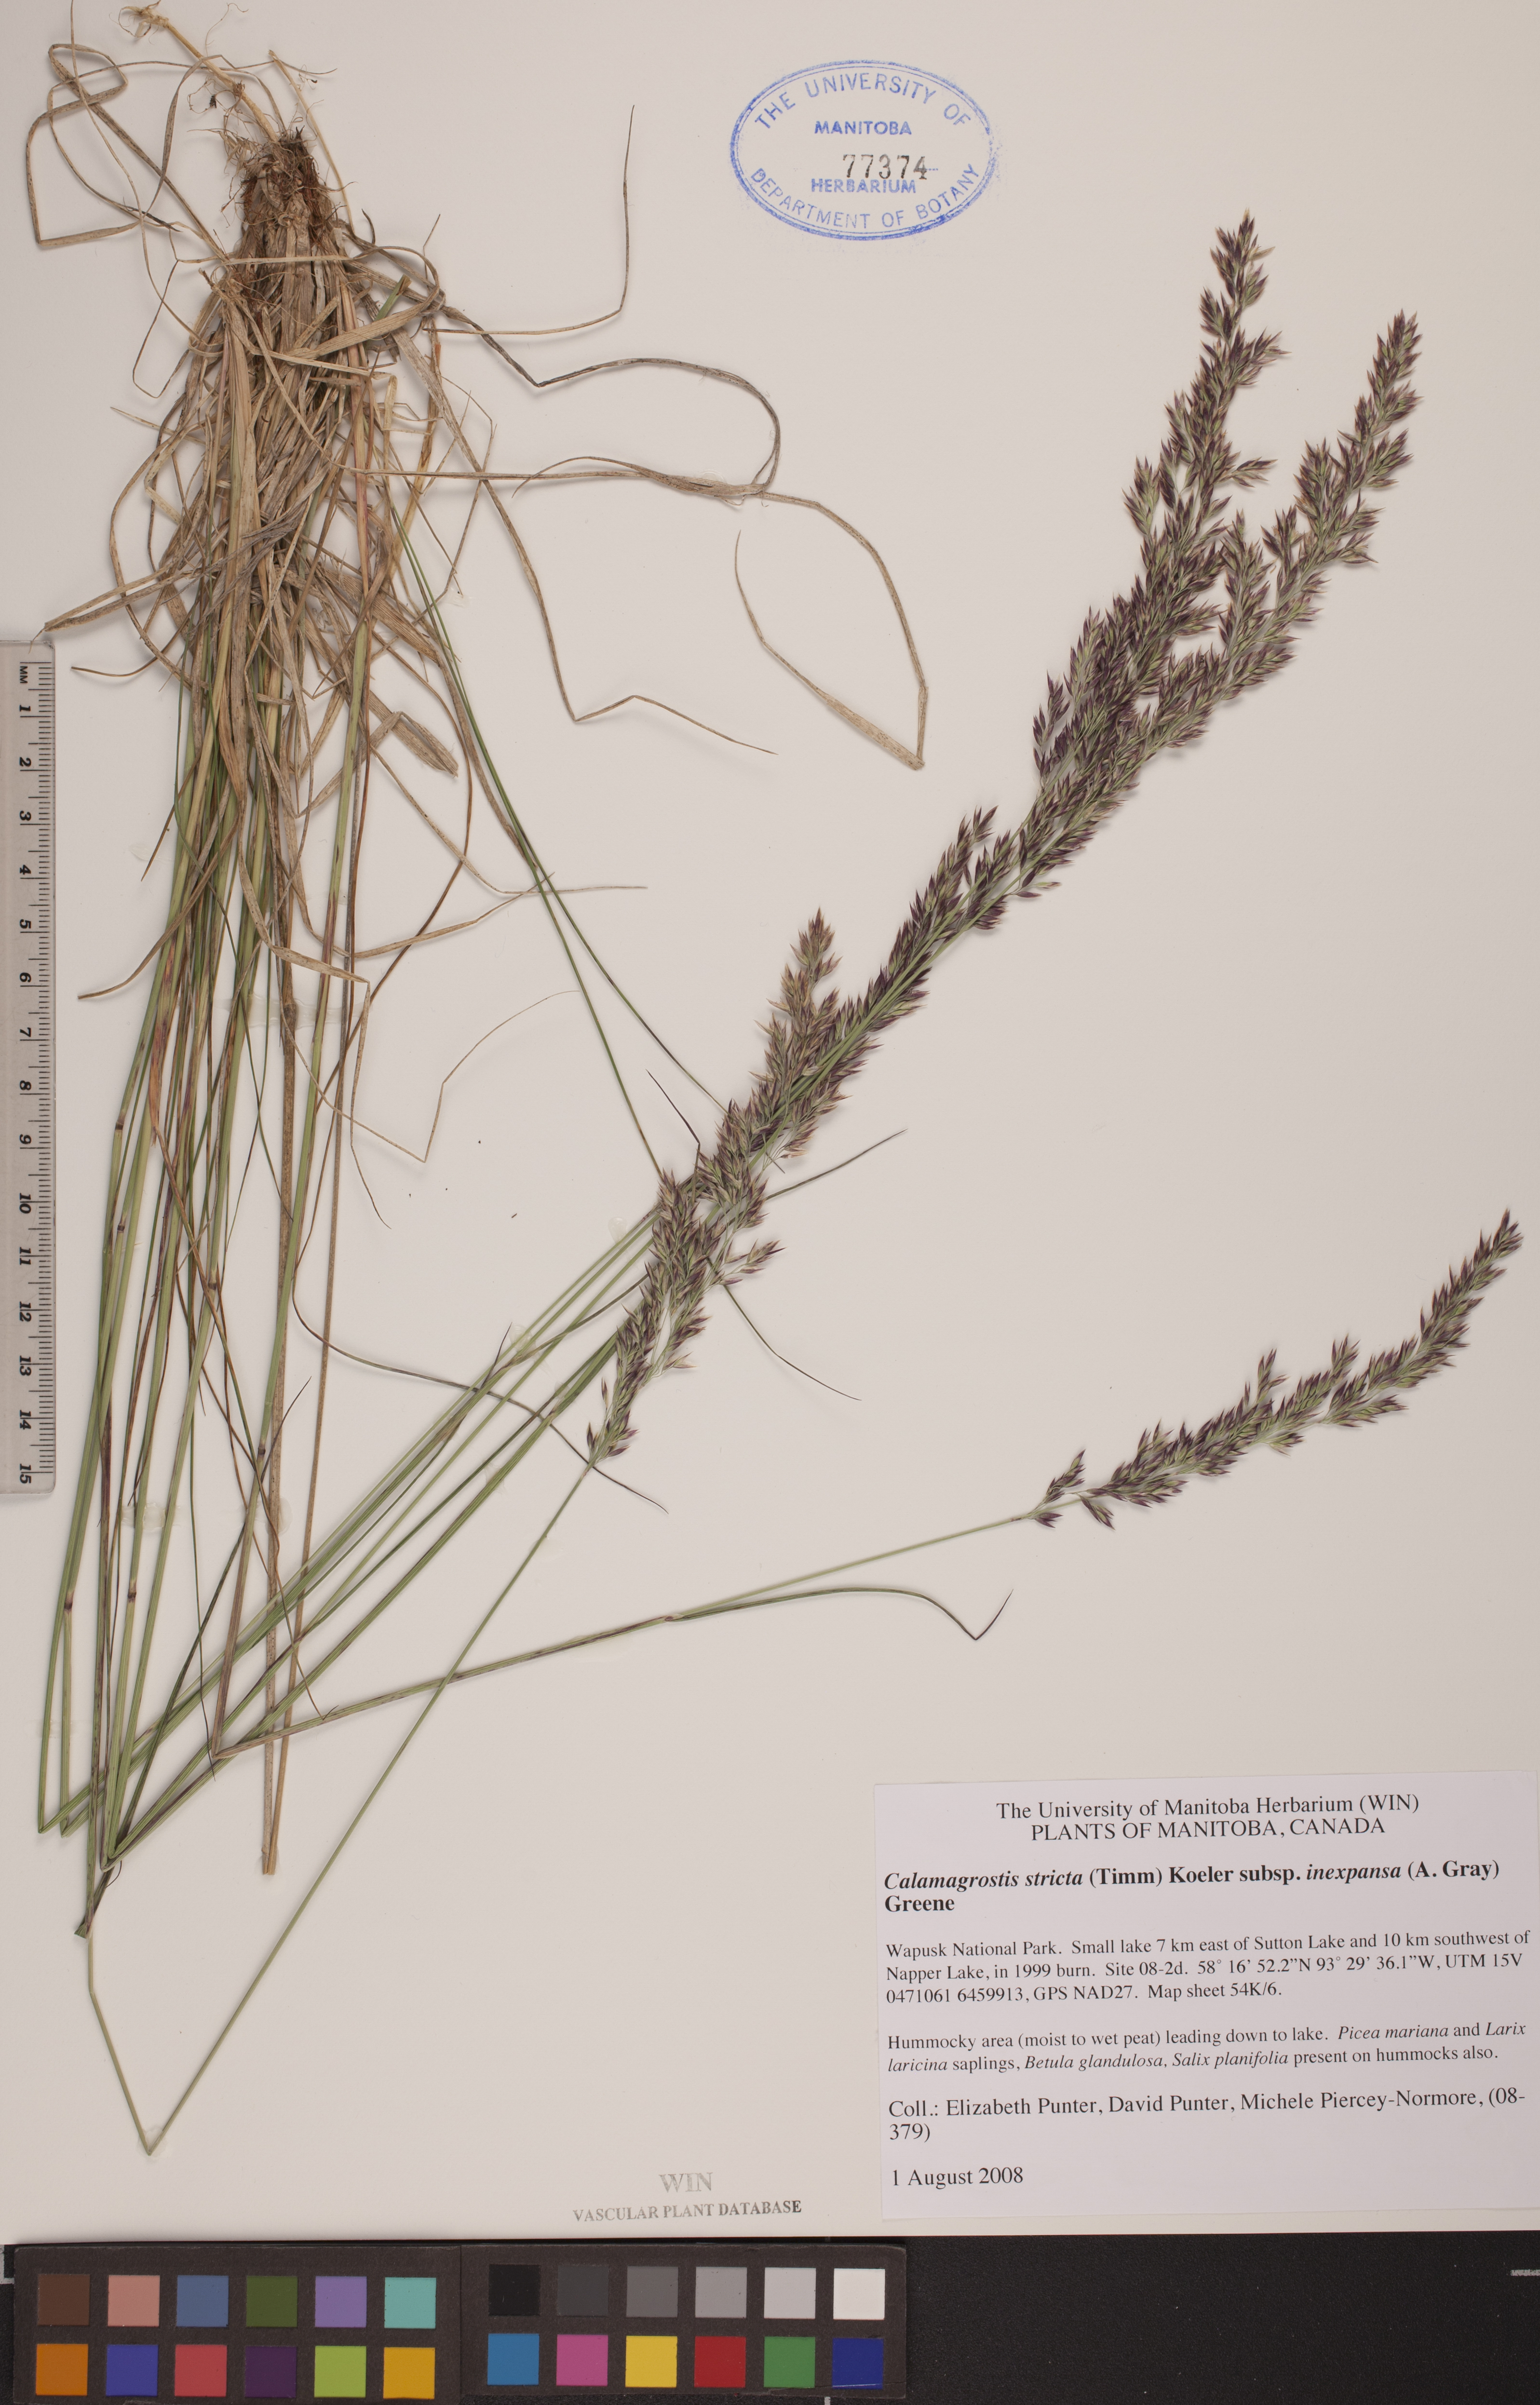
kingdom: Plantae
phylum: Tracheophyta
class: Liliopsida
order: Poales
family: Poaceae
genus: Calamagrostis
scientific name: Calamagrostis inexpansa
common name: Northern reedgrass
